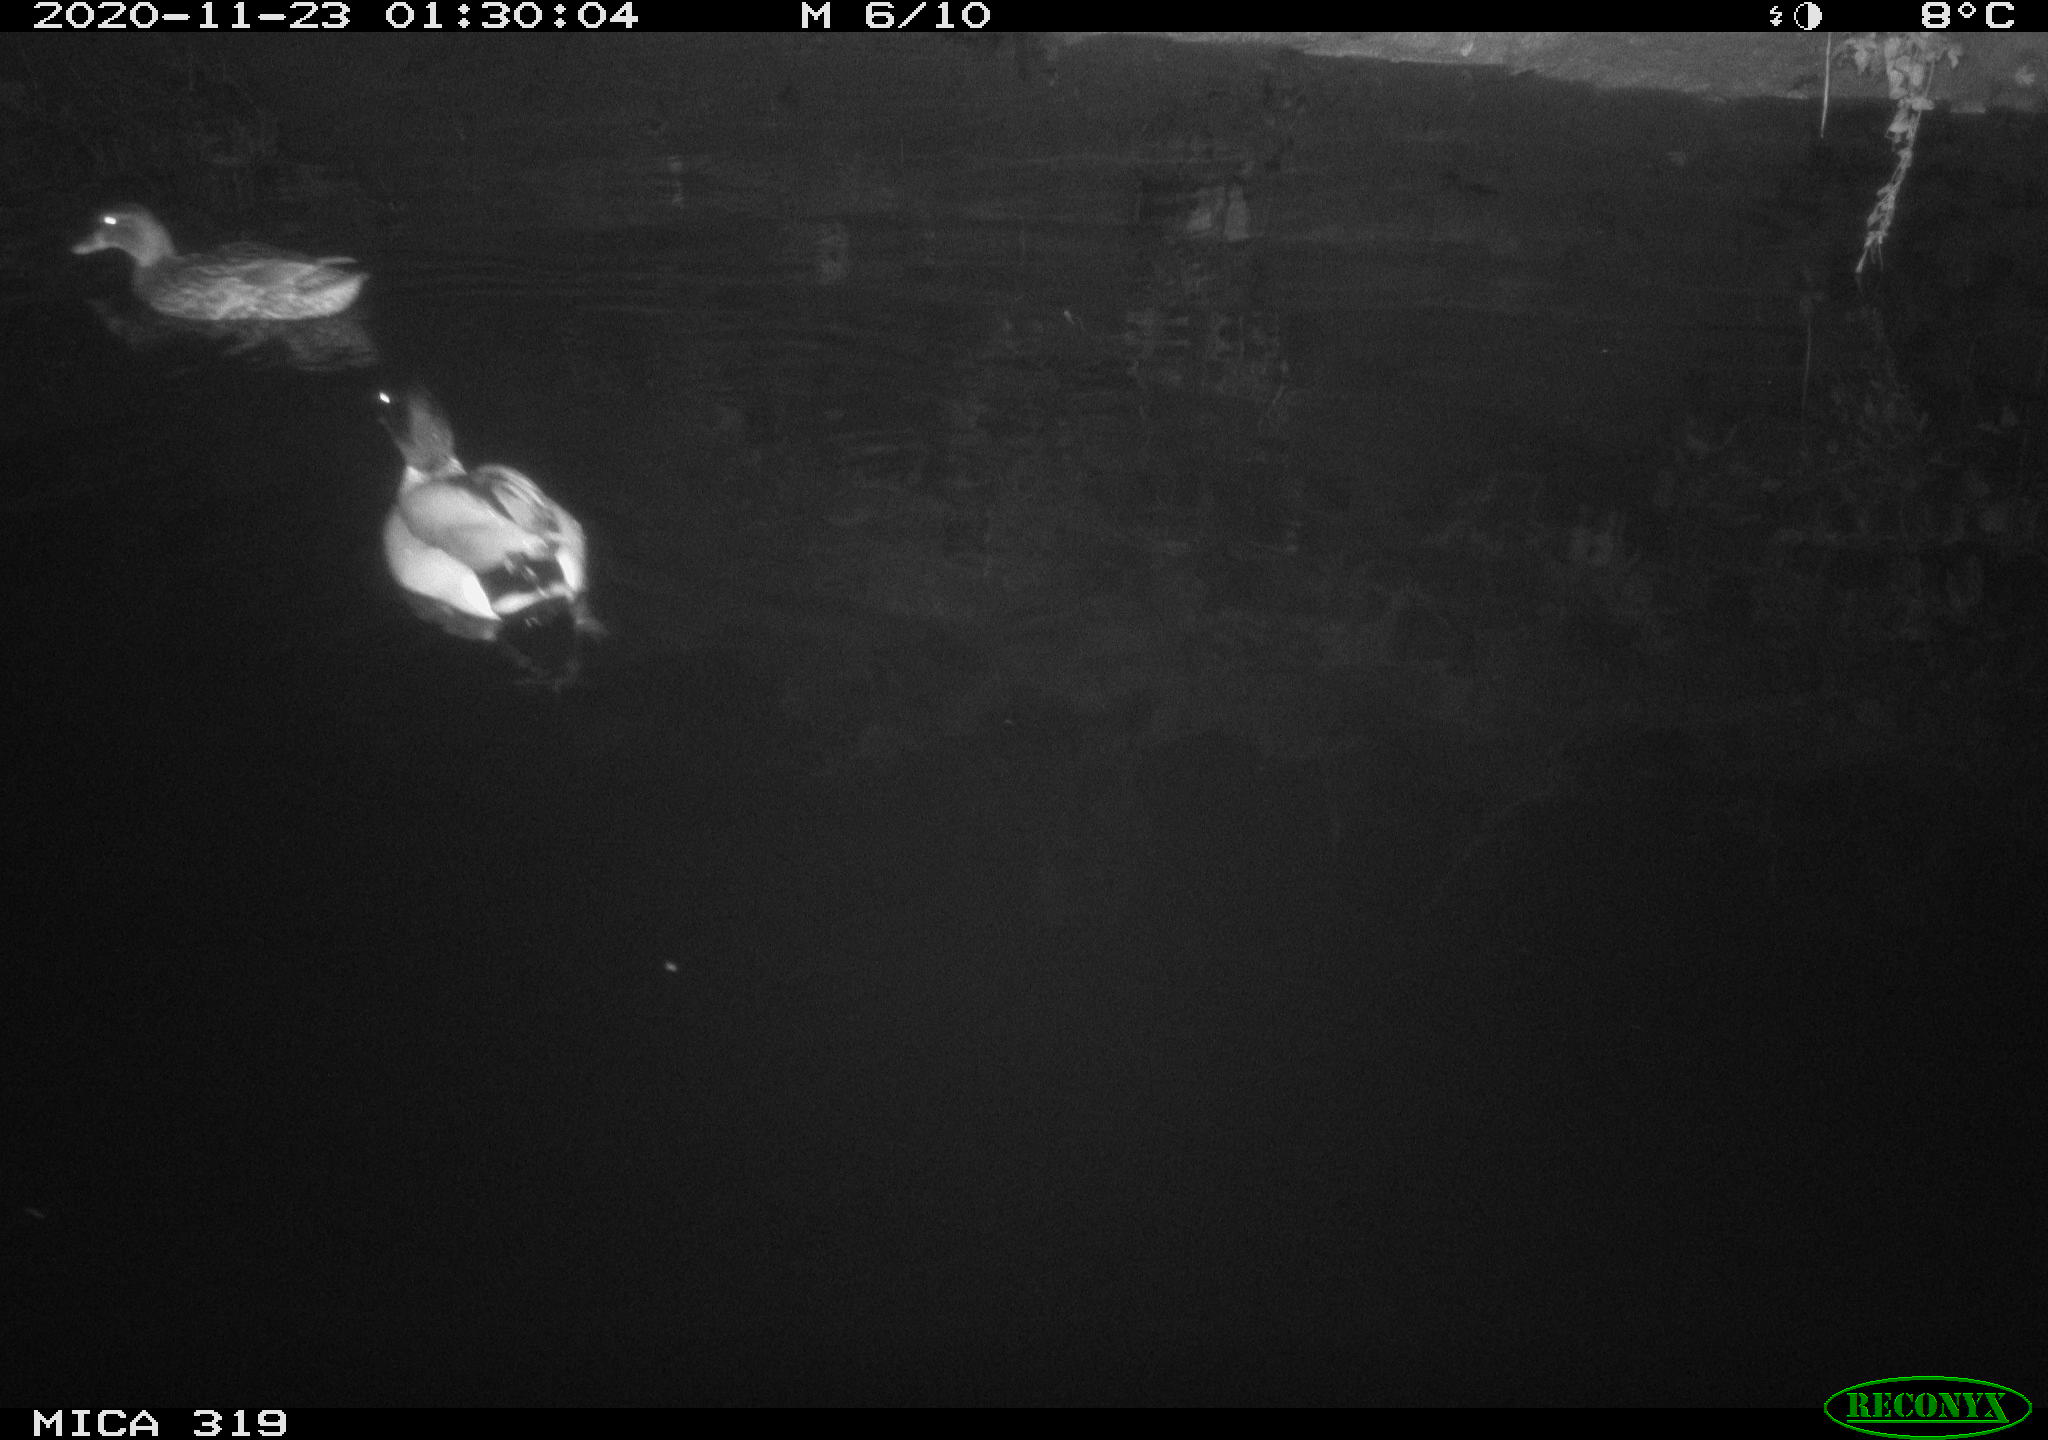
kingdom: Animalia
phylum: Chordata
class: Aves
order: Anseriformes
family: Anatidae
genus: Anas
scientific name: Anas platyrhynchos
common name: Mallard
